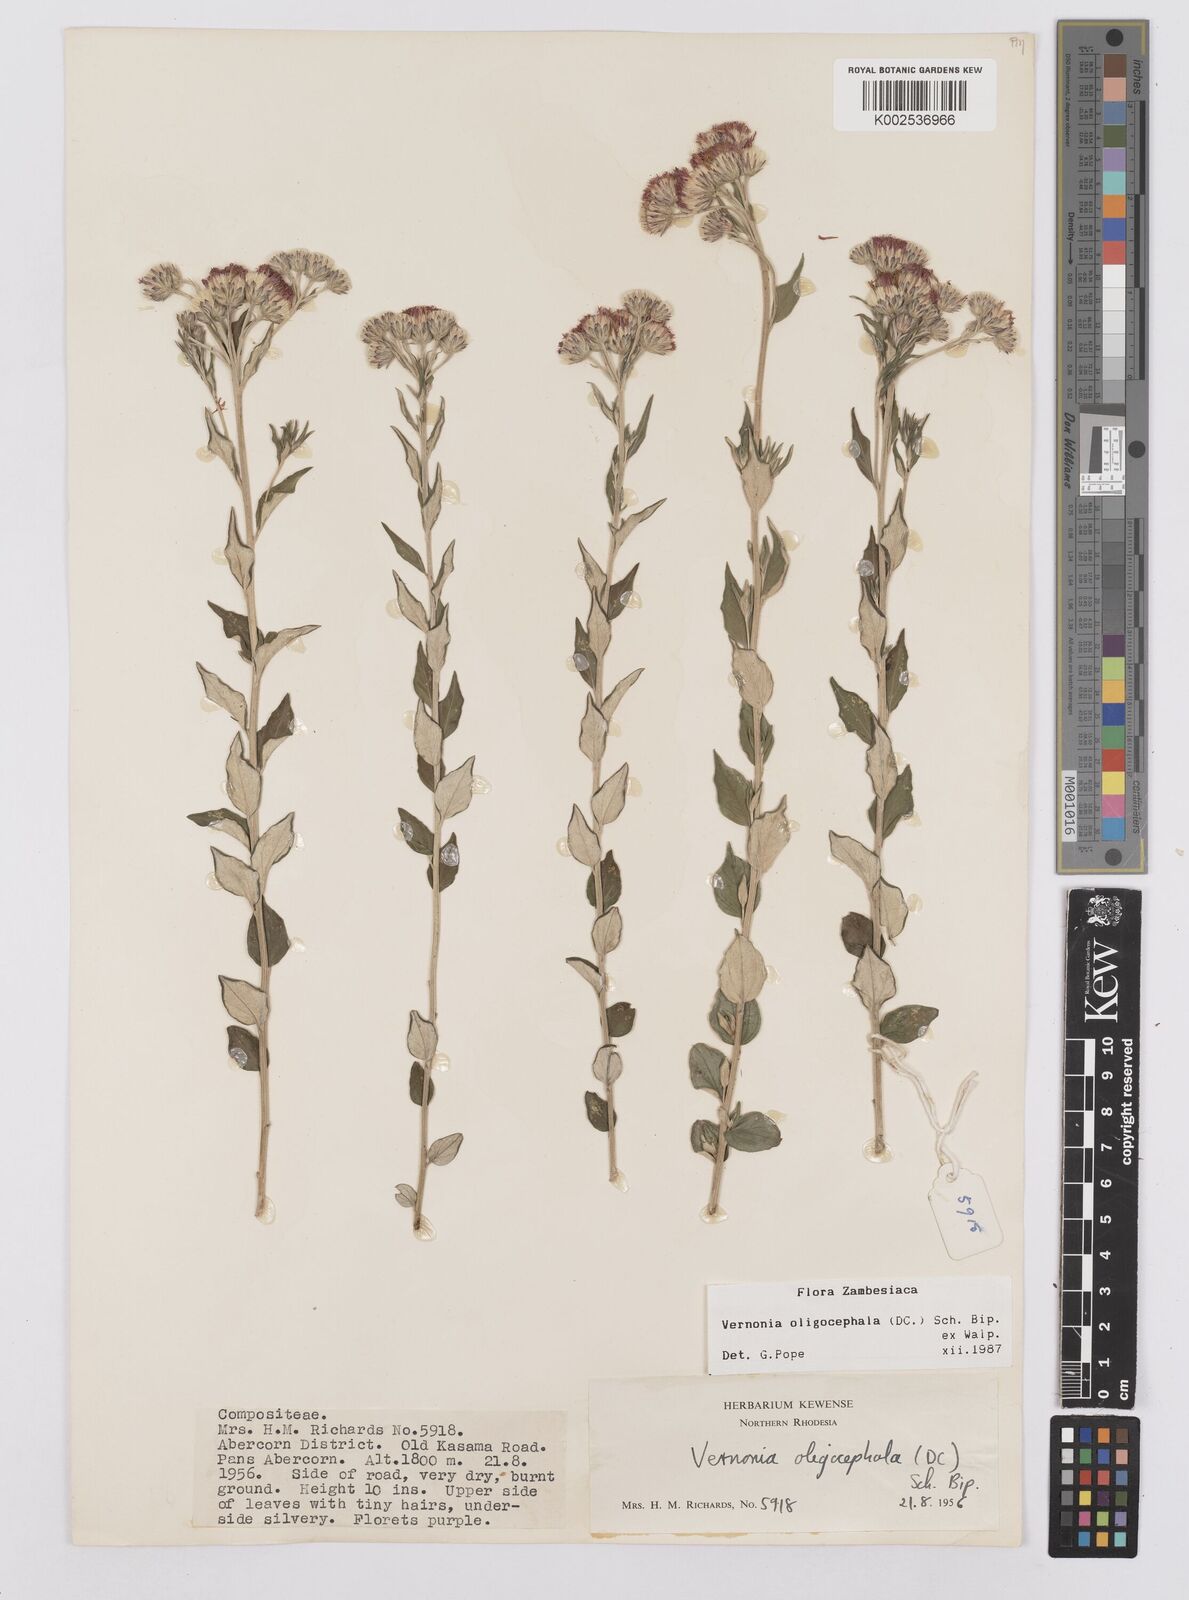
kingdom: Plantae
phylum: Tracheophyta
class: Magnoliopsida
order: Asterales
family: Asteraceae
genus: Hilliardiella
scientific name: Hilliardiella oligocephala
